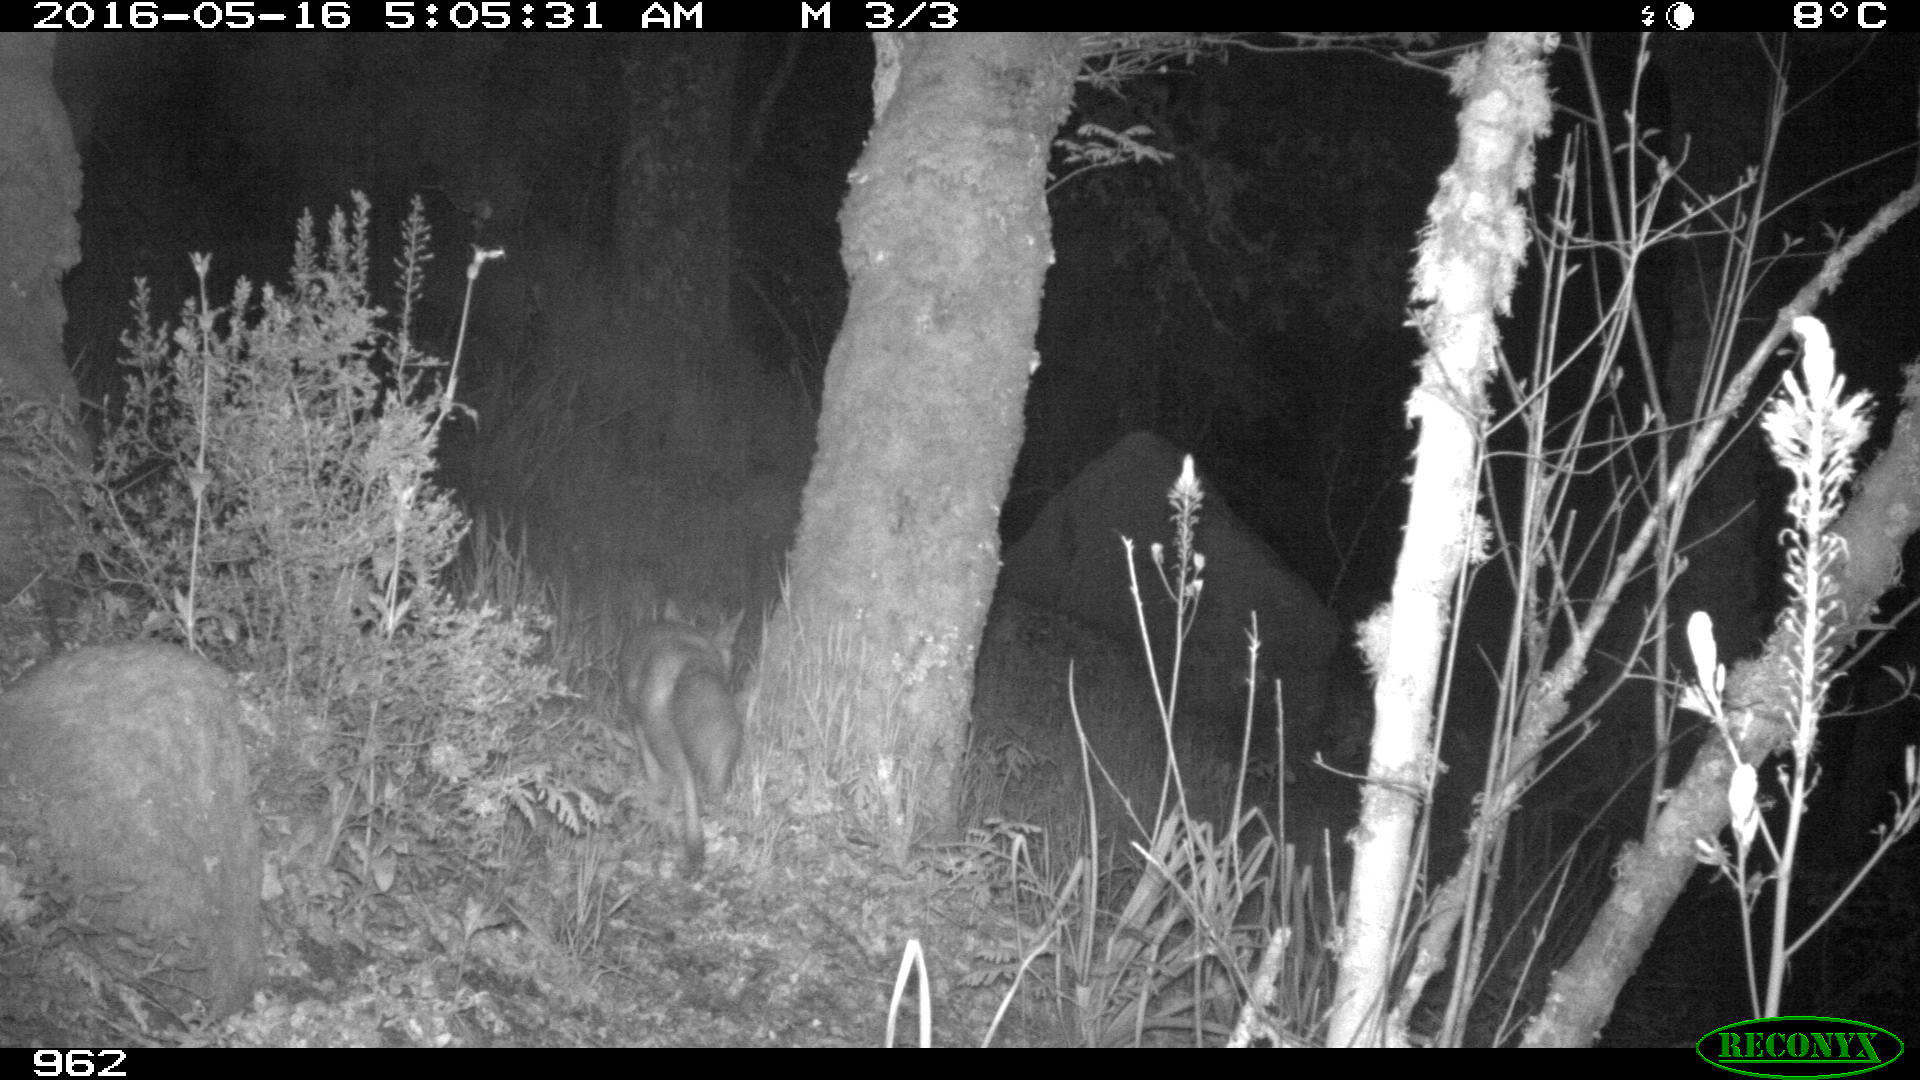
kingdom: Animalia
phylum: Chordata
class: Mammalia
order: Carnivora
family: Canidae
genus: Vulpes
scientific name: Vulpes vulpes
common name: Red fox
